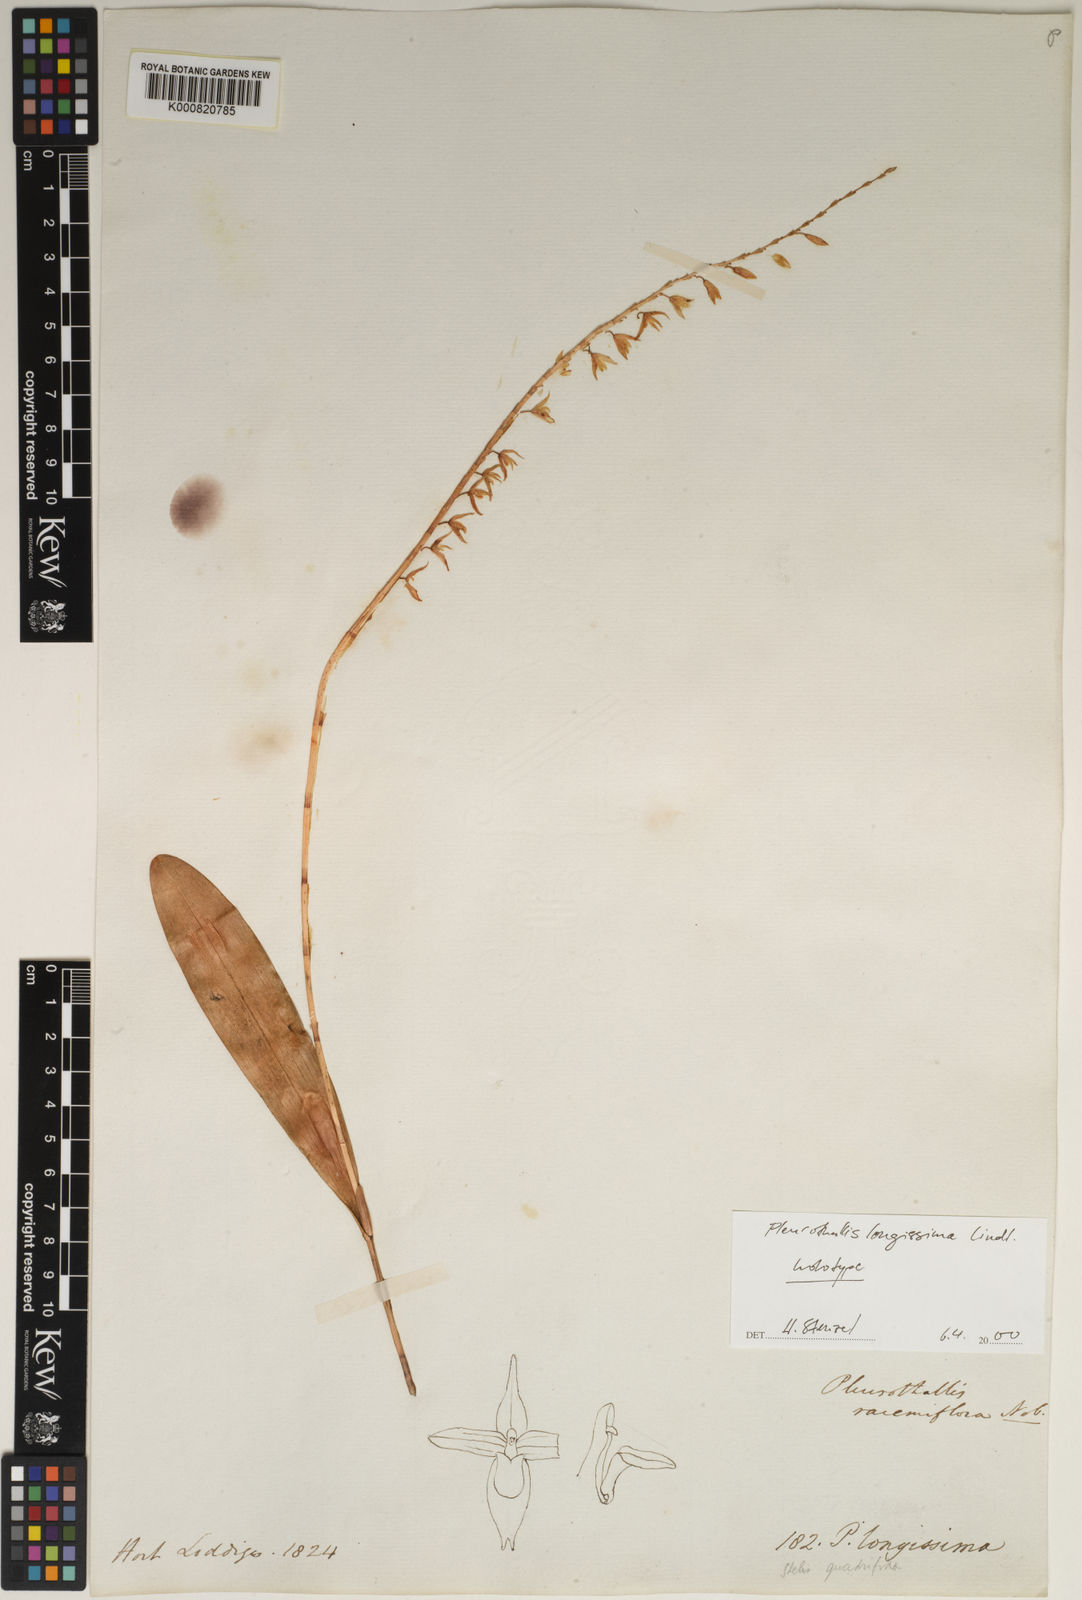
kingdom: Plantae
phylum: Tracheophyta
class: Liliopsida
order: Asparagales
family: Orchidaceae
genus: Pleurothallis
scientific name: Pleurothallis quadrifida
